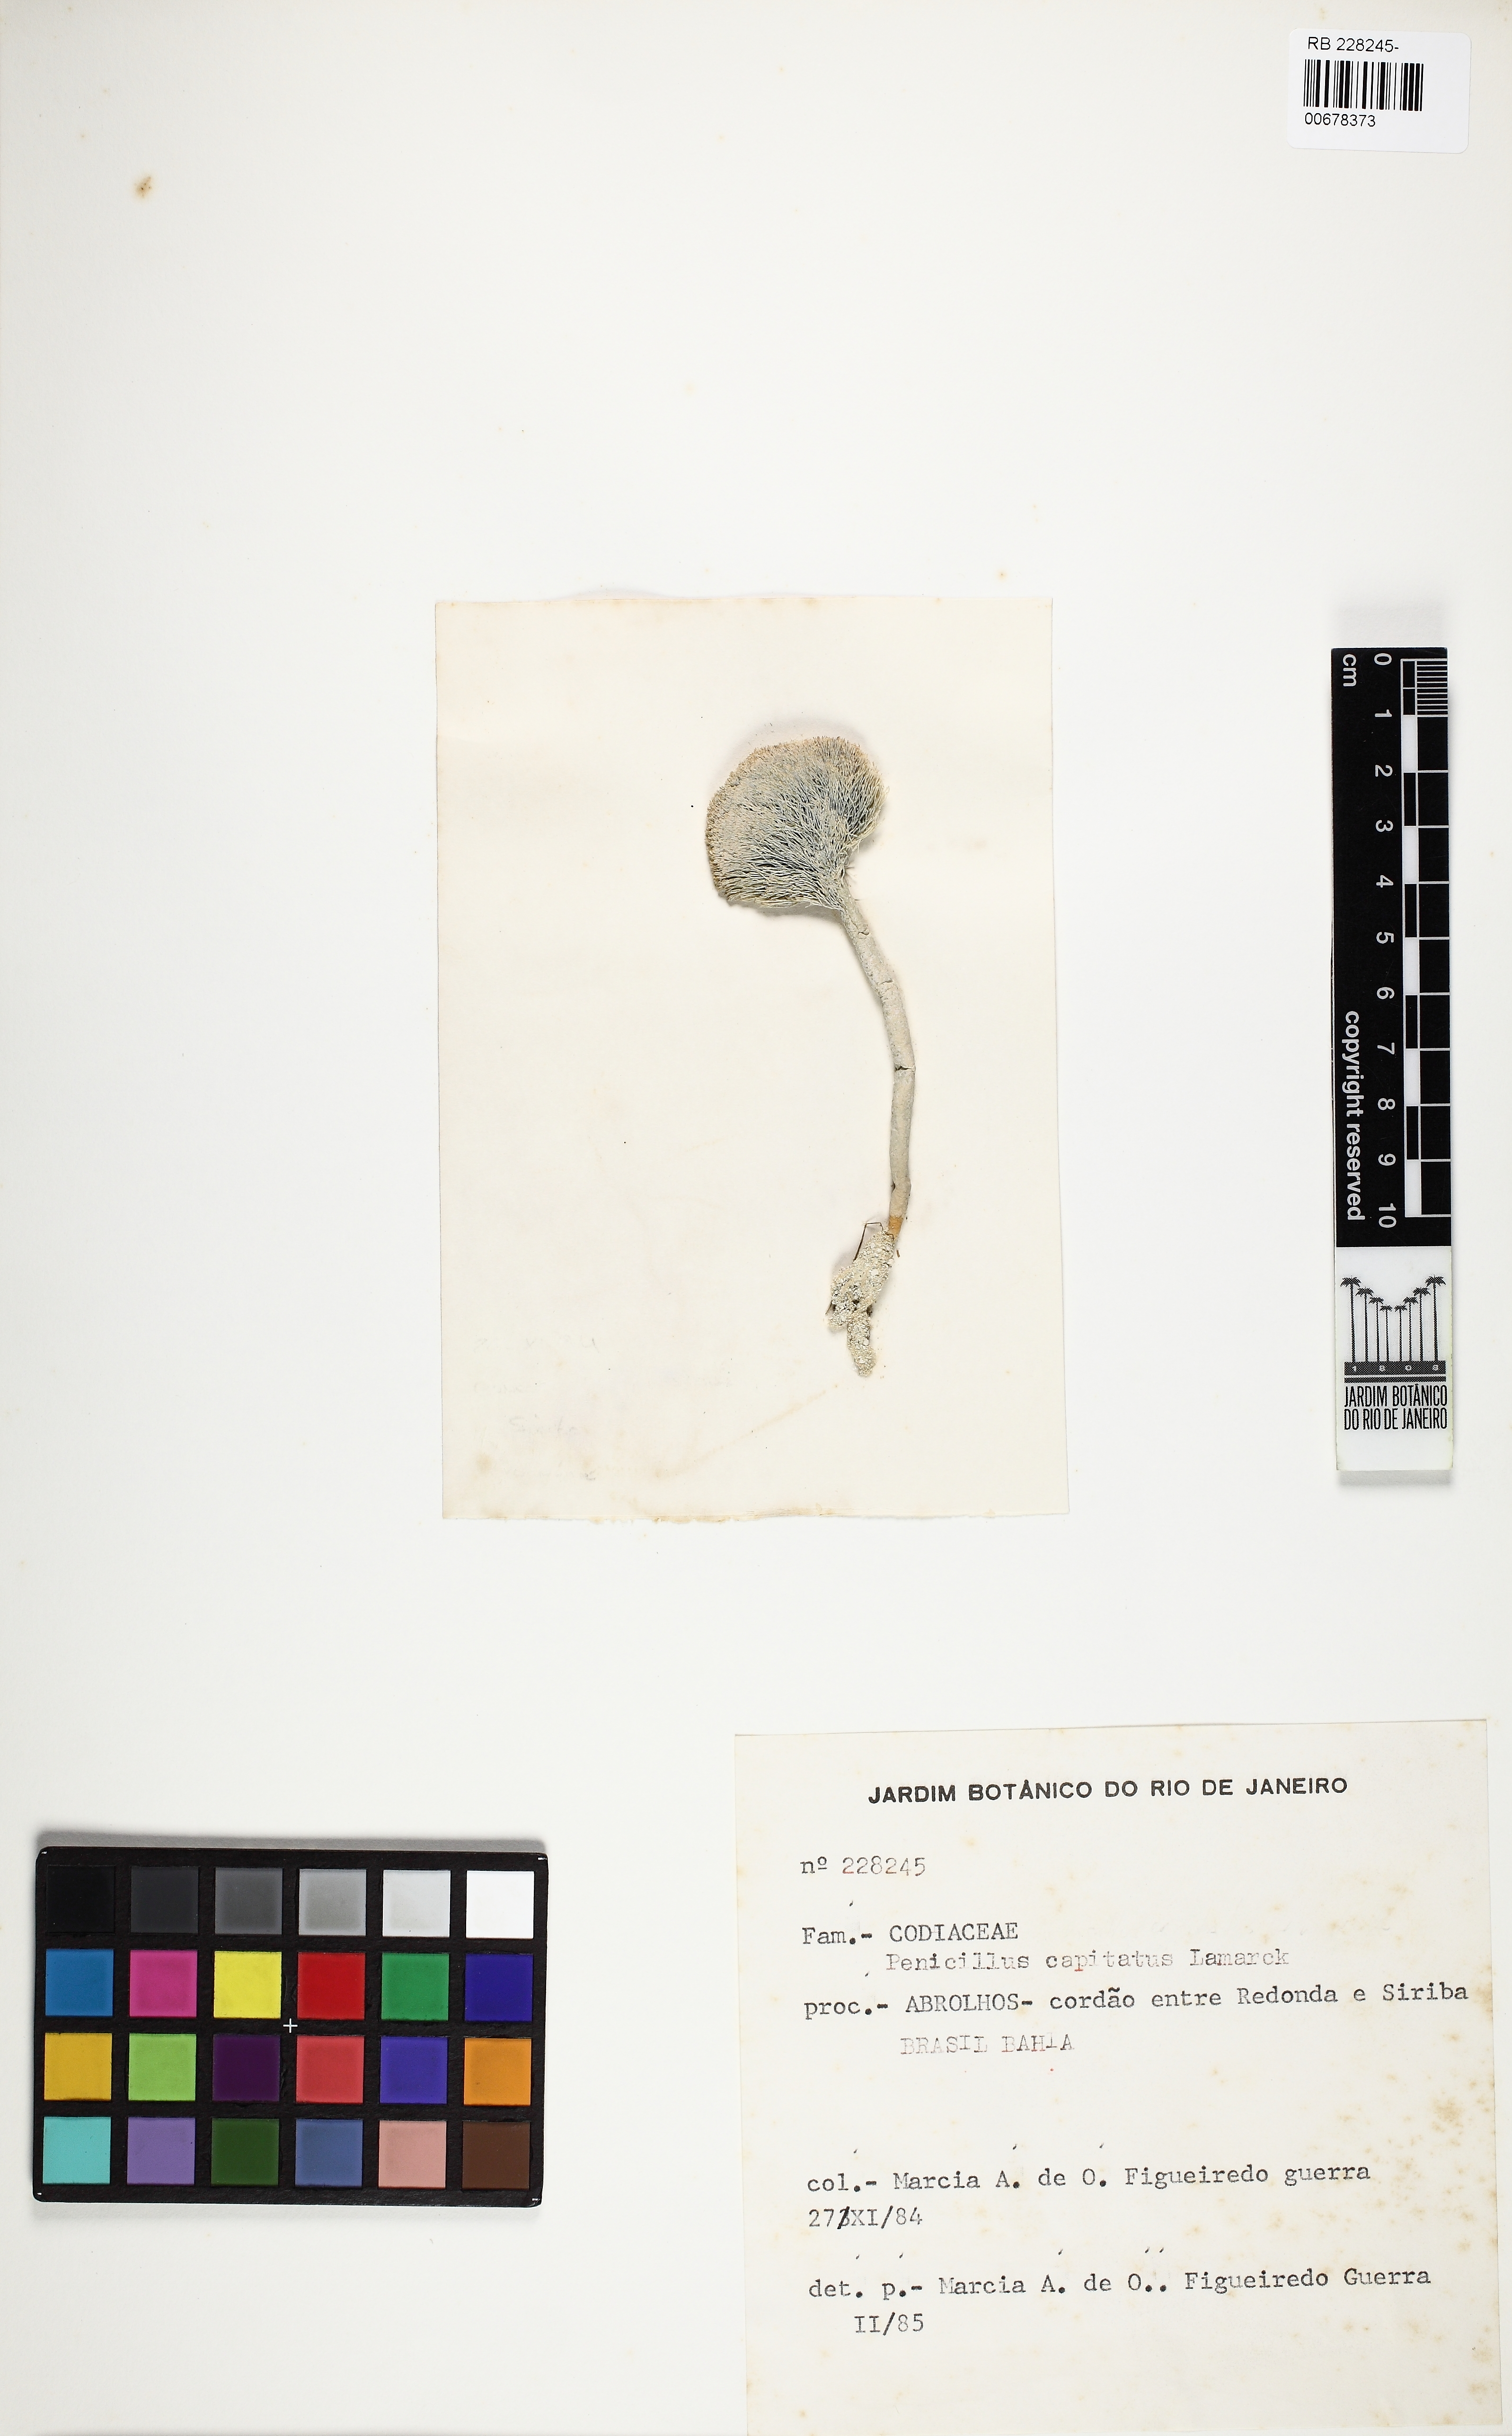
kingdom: Plantae
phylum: Chlorophyta
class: Ulvophyceae
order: Bryopsidales
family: Udoteaceae
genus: Penicillus
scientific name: Penicillus capitatus
